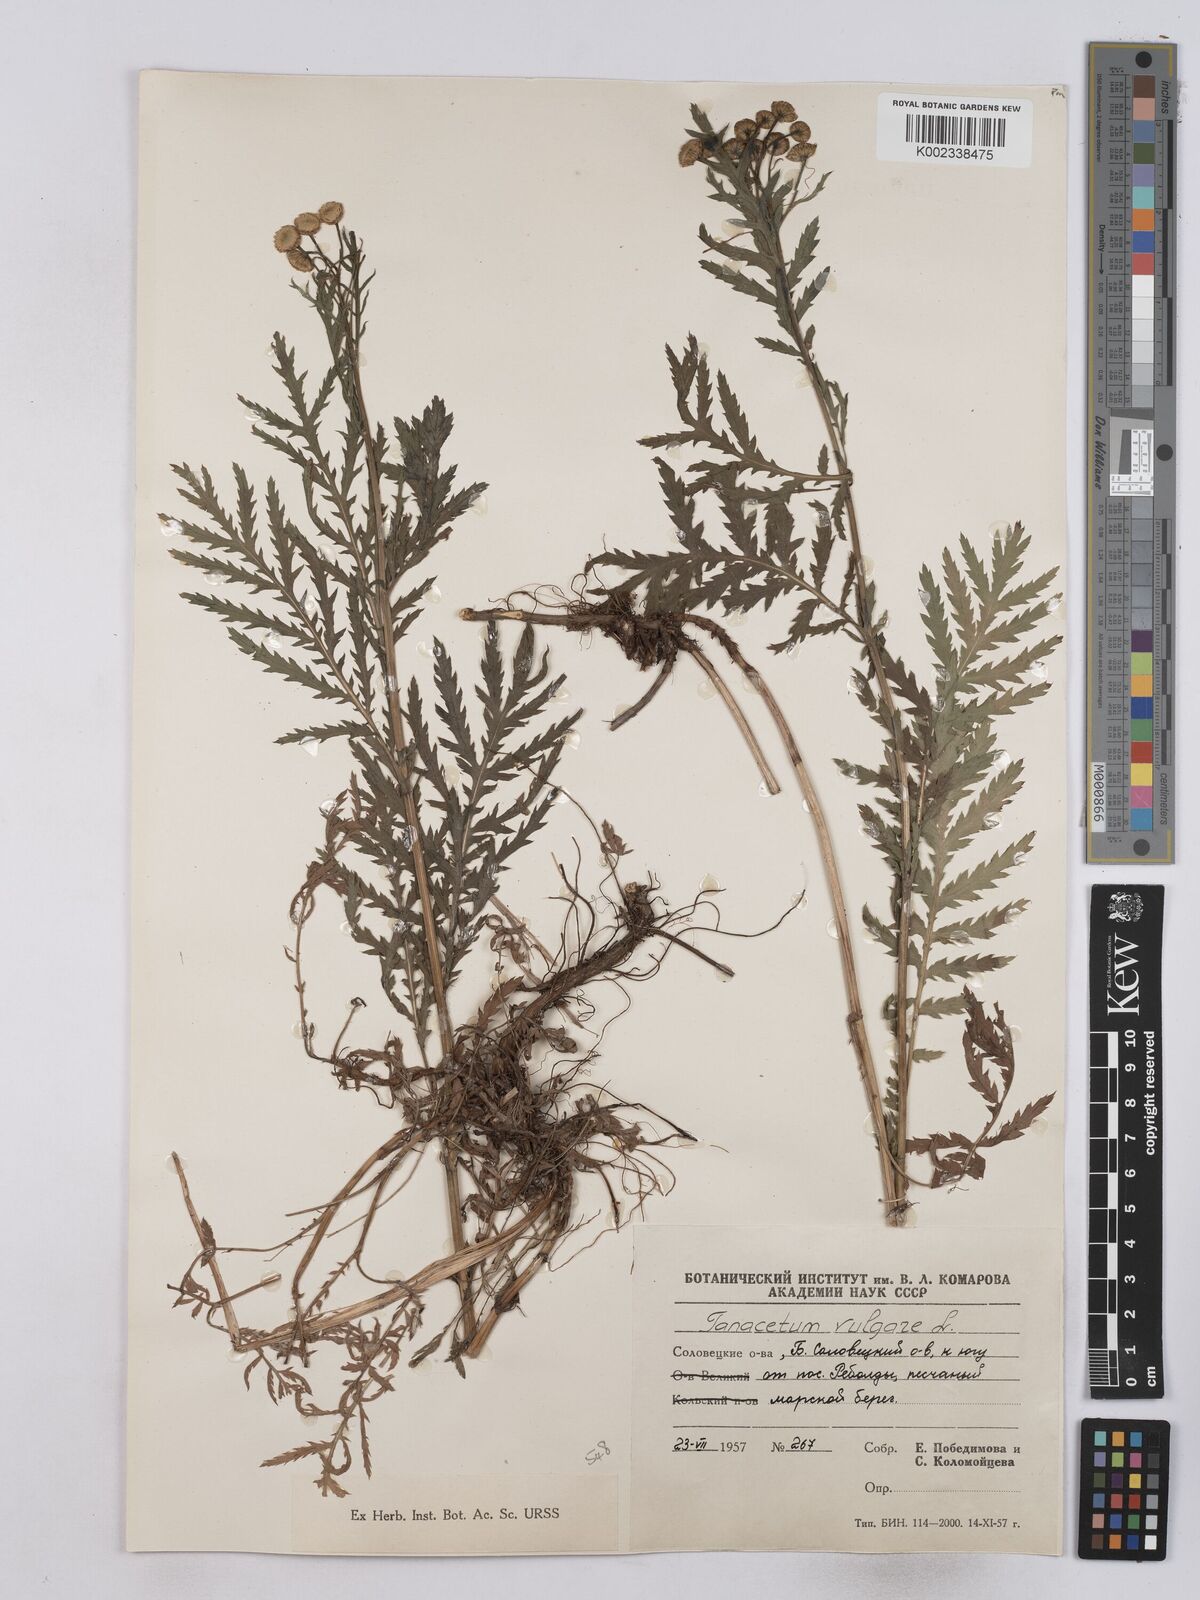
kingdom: Plantae
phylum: Tracheophyta
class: Magnoliopsida
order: Asterales
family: Asteraceae
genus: Tanacetum
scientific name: Tanacetum vulgare
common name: Common tansy
